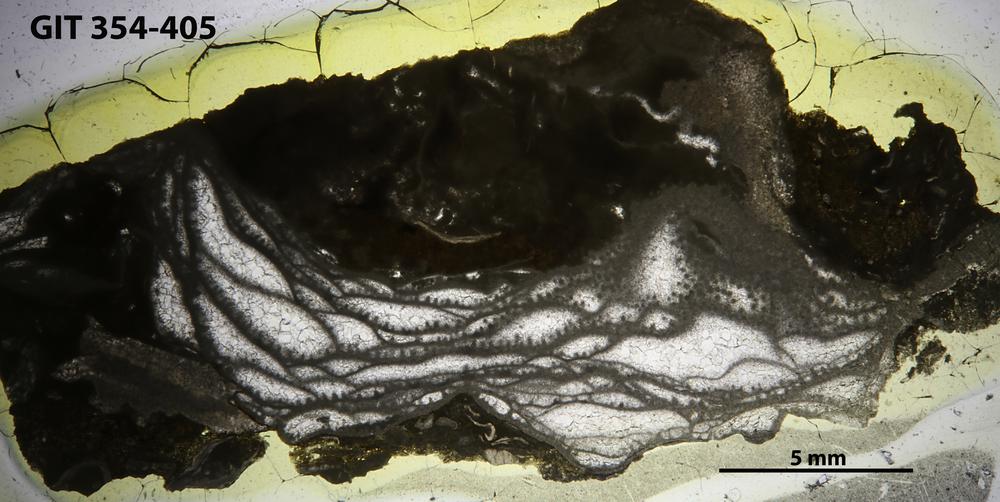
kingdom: Animalia
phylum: Porifera
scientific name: Porifera
